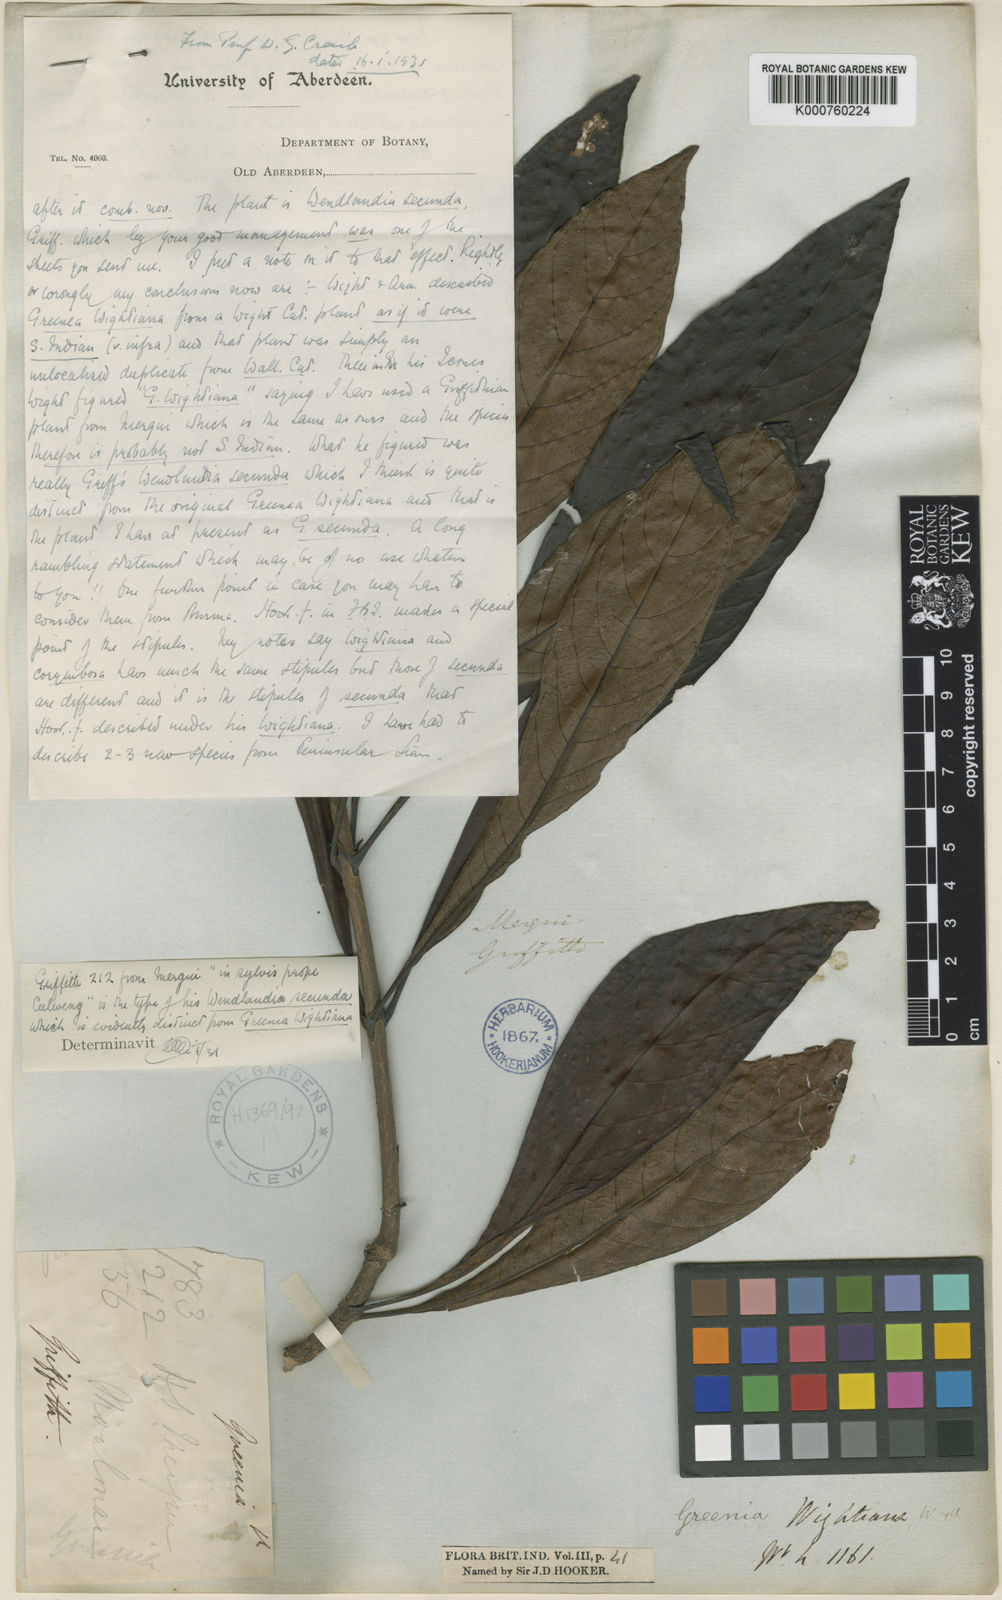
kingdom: Plantae
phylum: Tracheophyta
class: Magnoliopsida
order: Gentianales
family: Rubiaceae
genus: Greenea
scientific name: Greenea secunda
